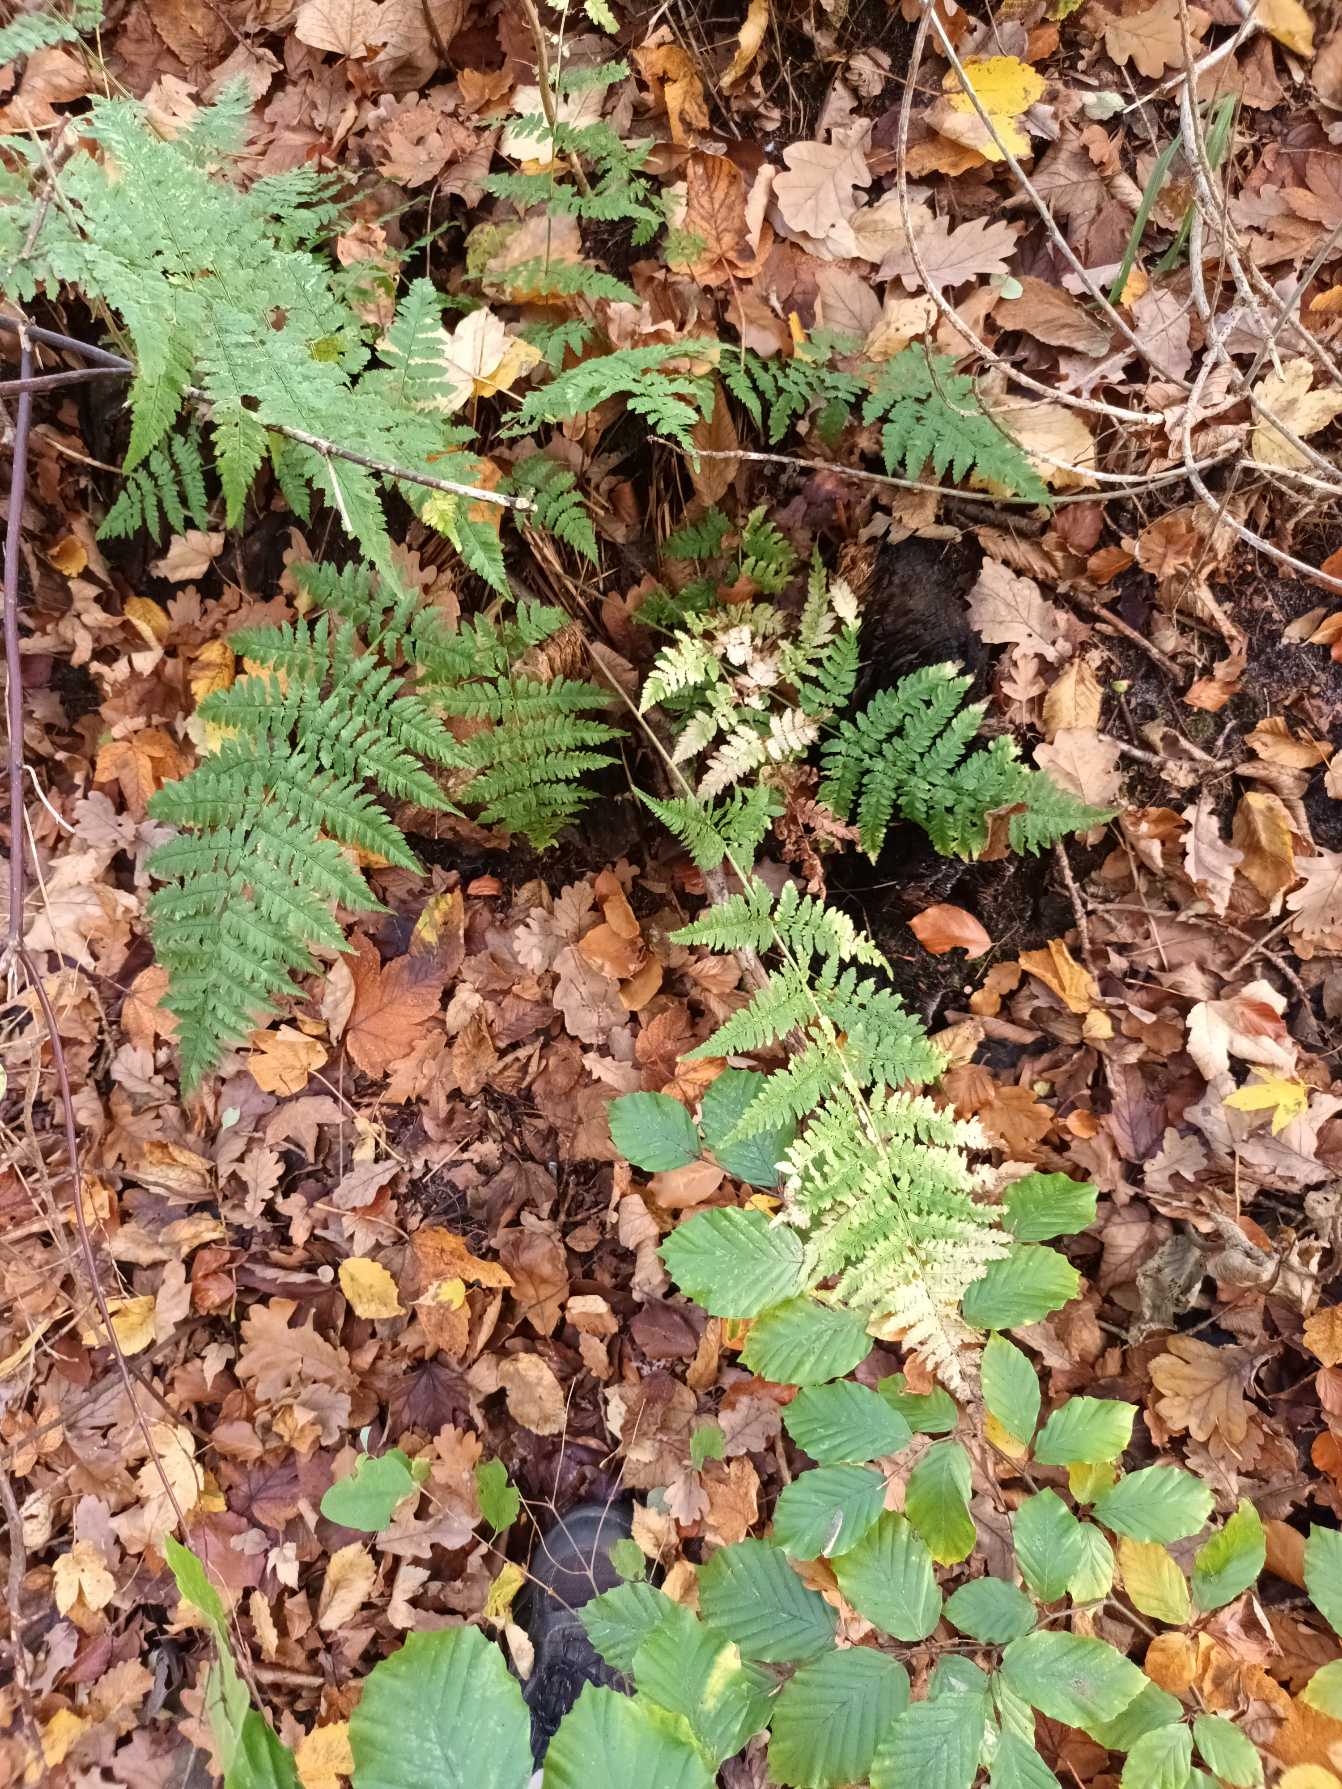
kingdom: Plantae
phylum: Tracheophyta
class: Polypodiopsida
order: Polypodiales
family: Dryopteridaceae
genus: Dryopteris
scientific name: Dryopteris carthusiana
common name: Smalbladet mangeløv
